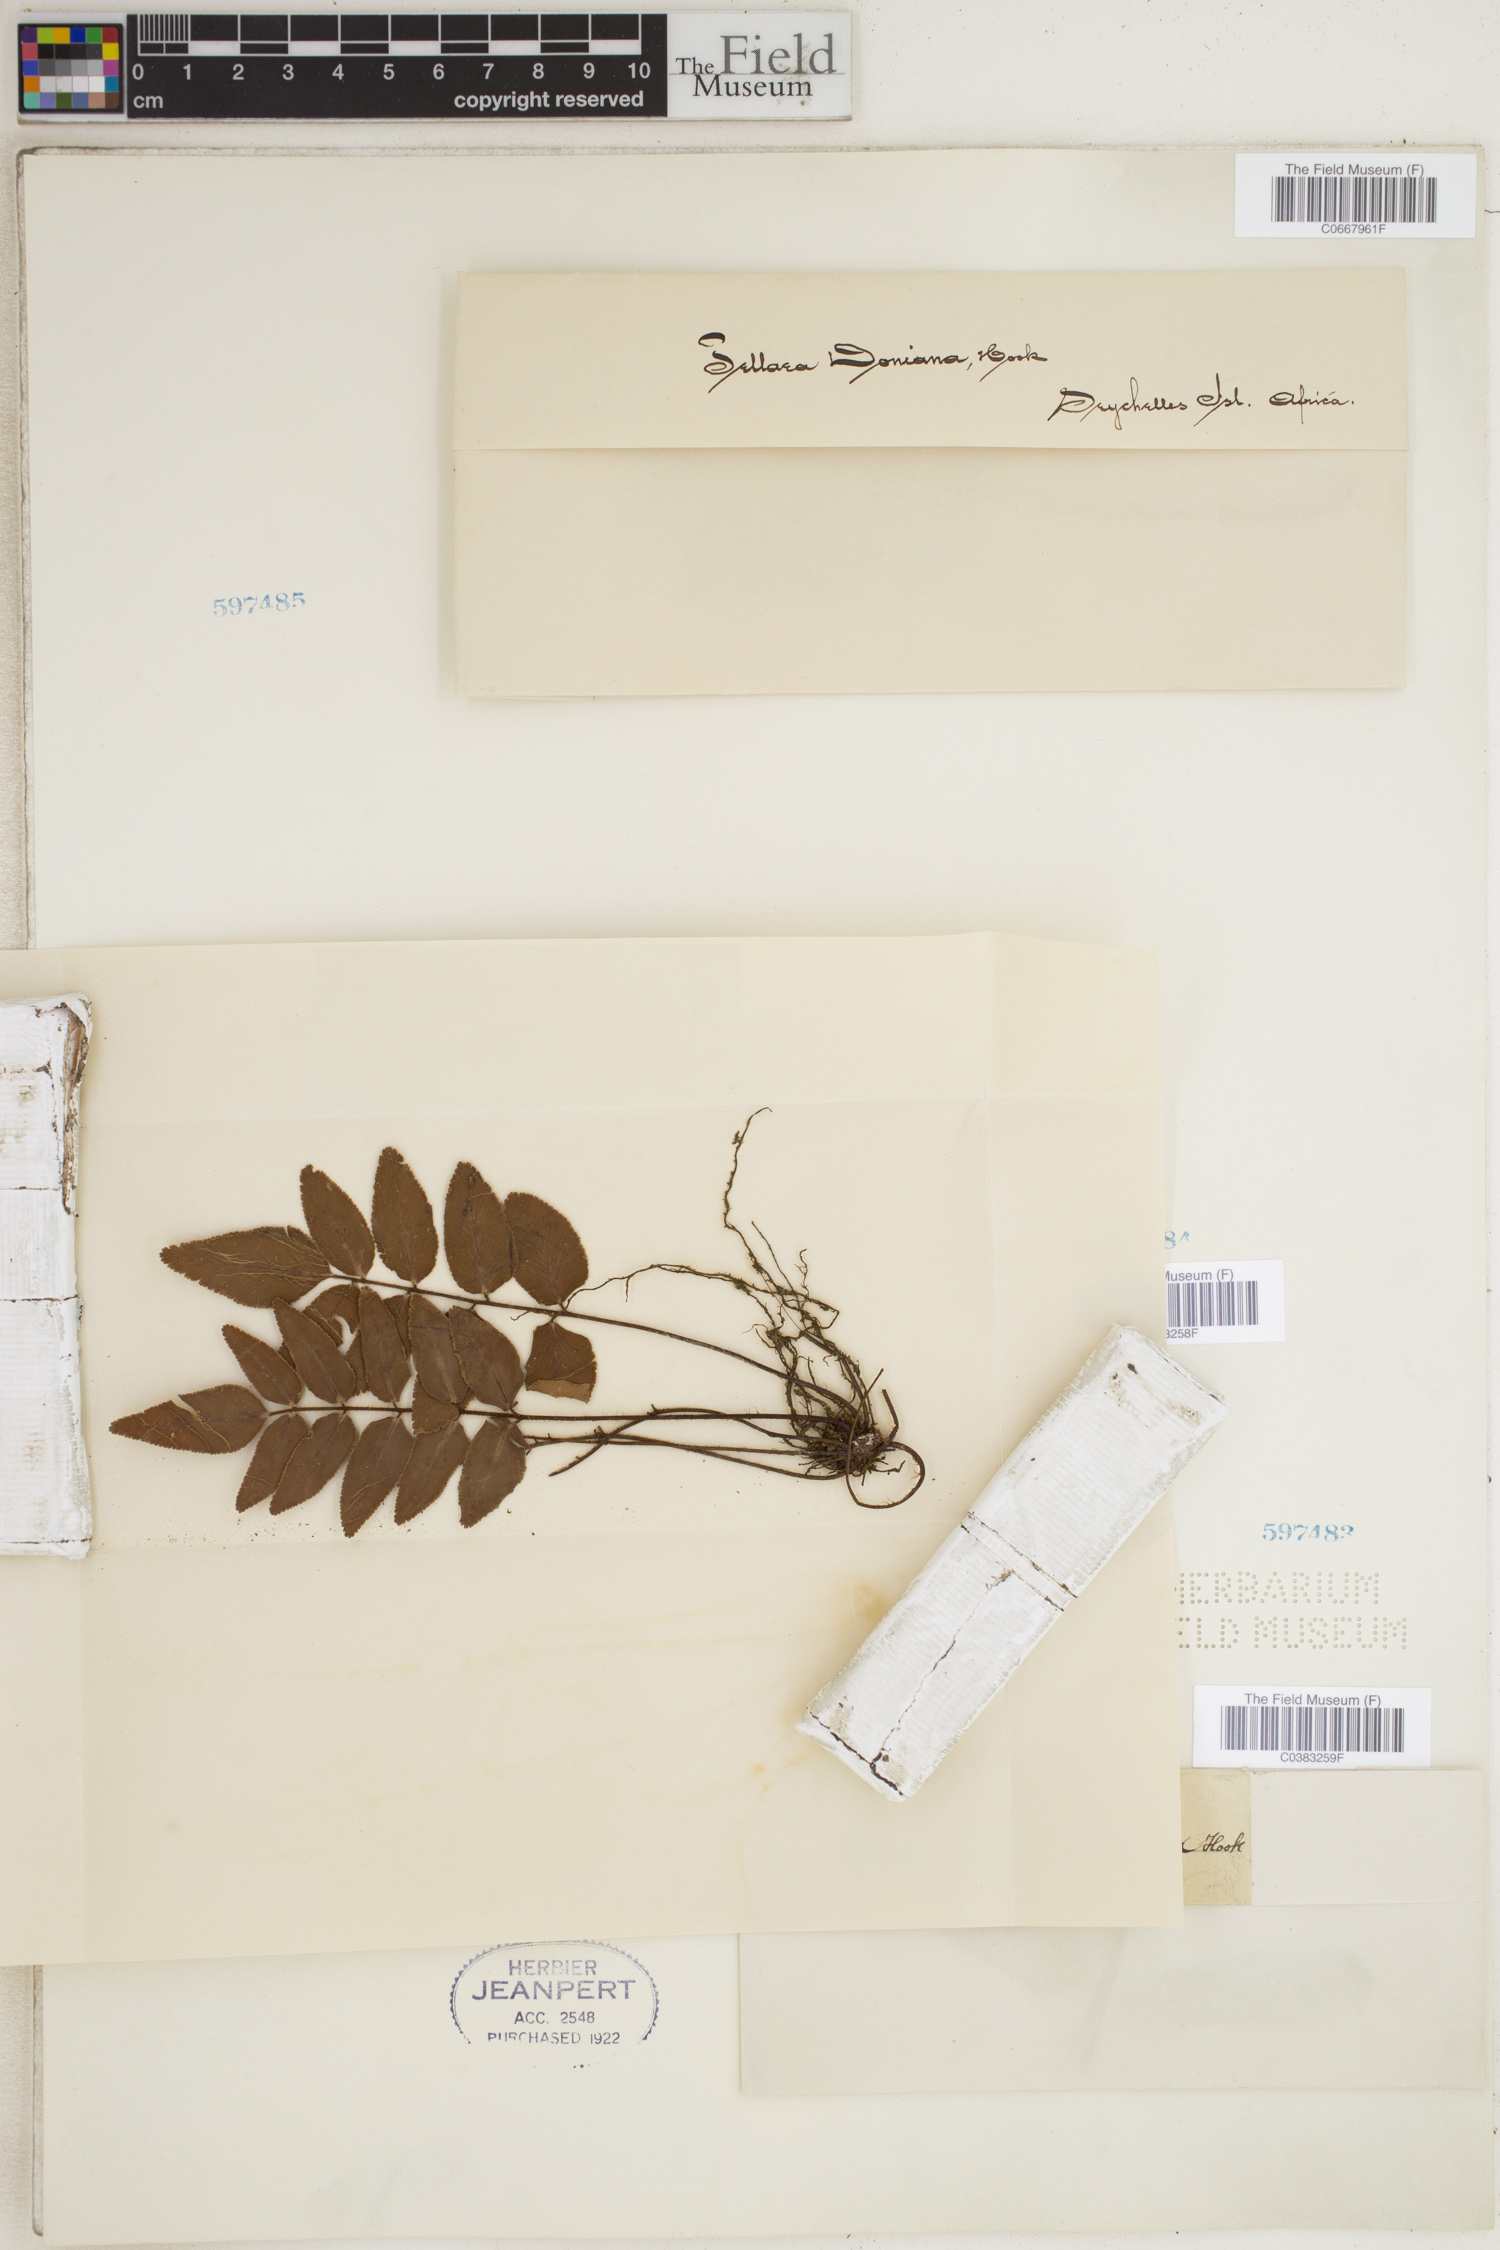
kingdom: Plantae
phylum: Tracheophyta
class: Polypodiopsida
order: Polypodiales
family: Pteridaceae
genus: Pellaea
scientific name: Pellaea doniana
